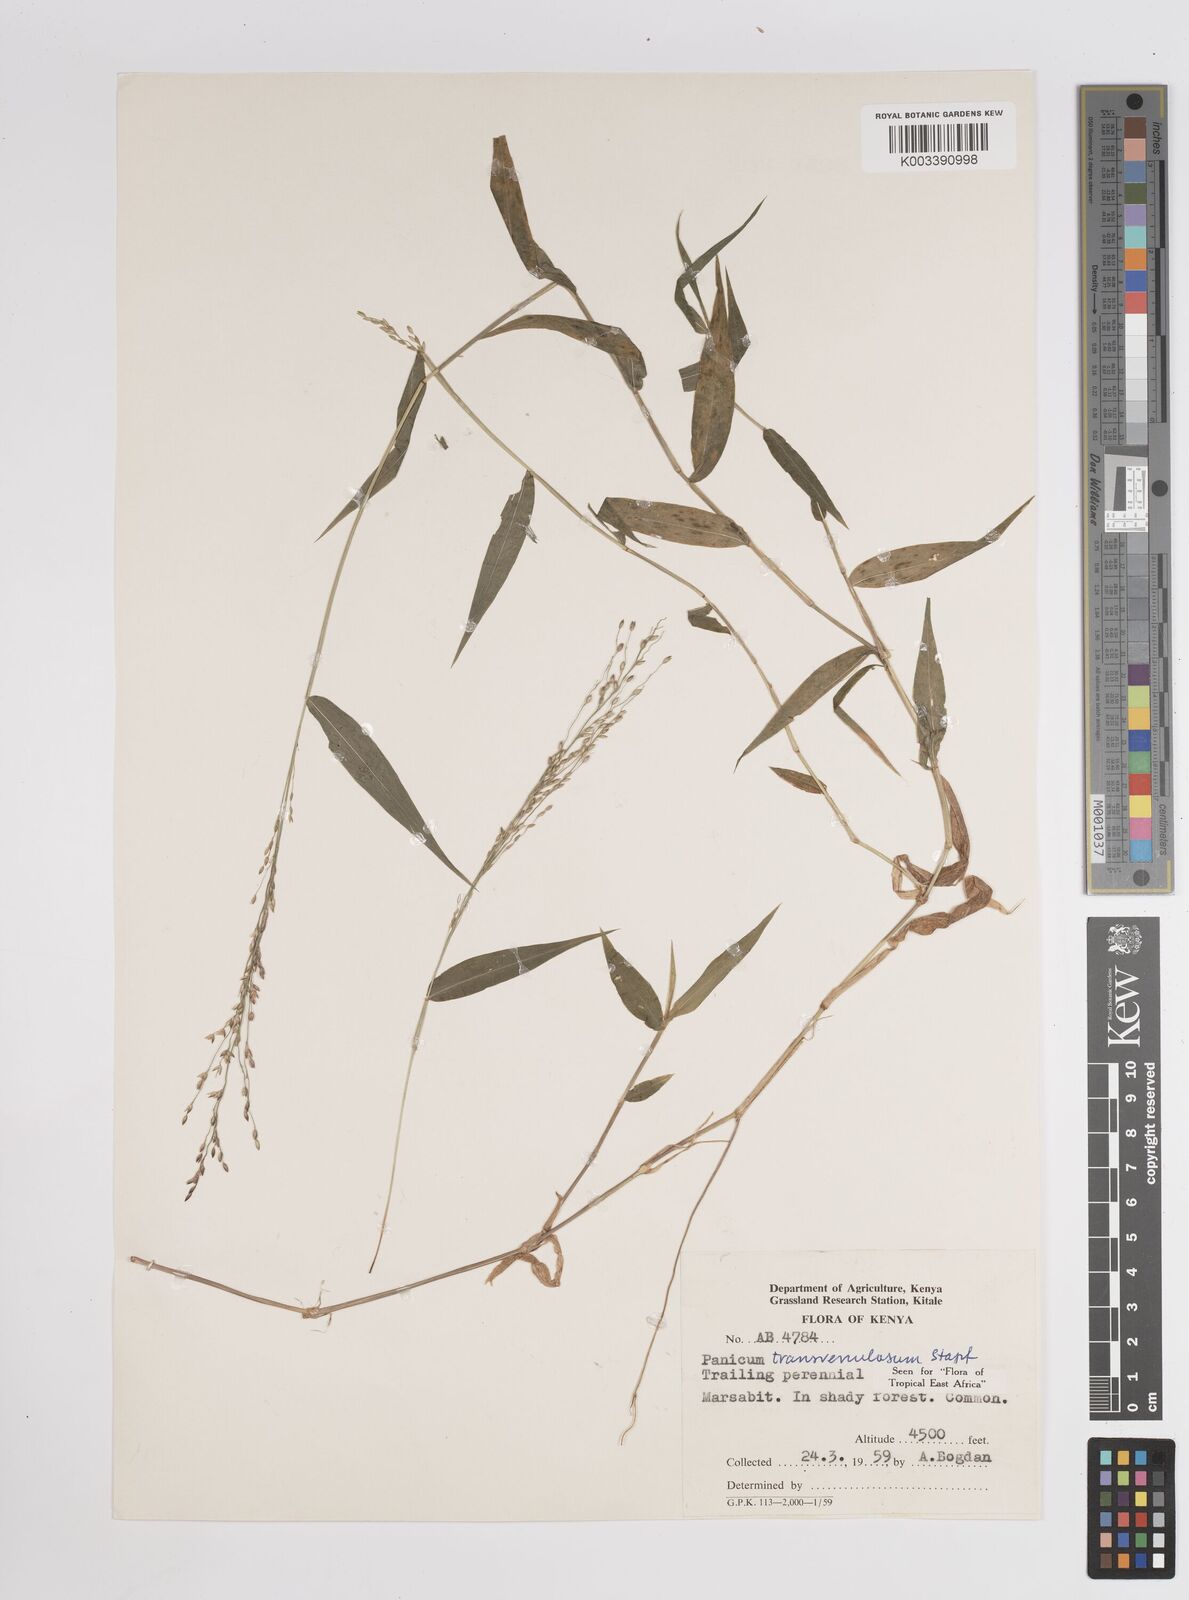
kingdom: Plantae
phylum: Tracheophyta
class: Liliopsida
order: Poales
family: Poaceae
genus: Panicum
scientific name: Panicum monticola
